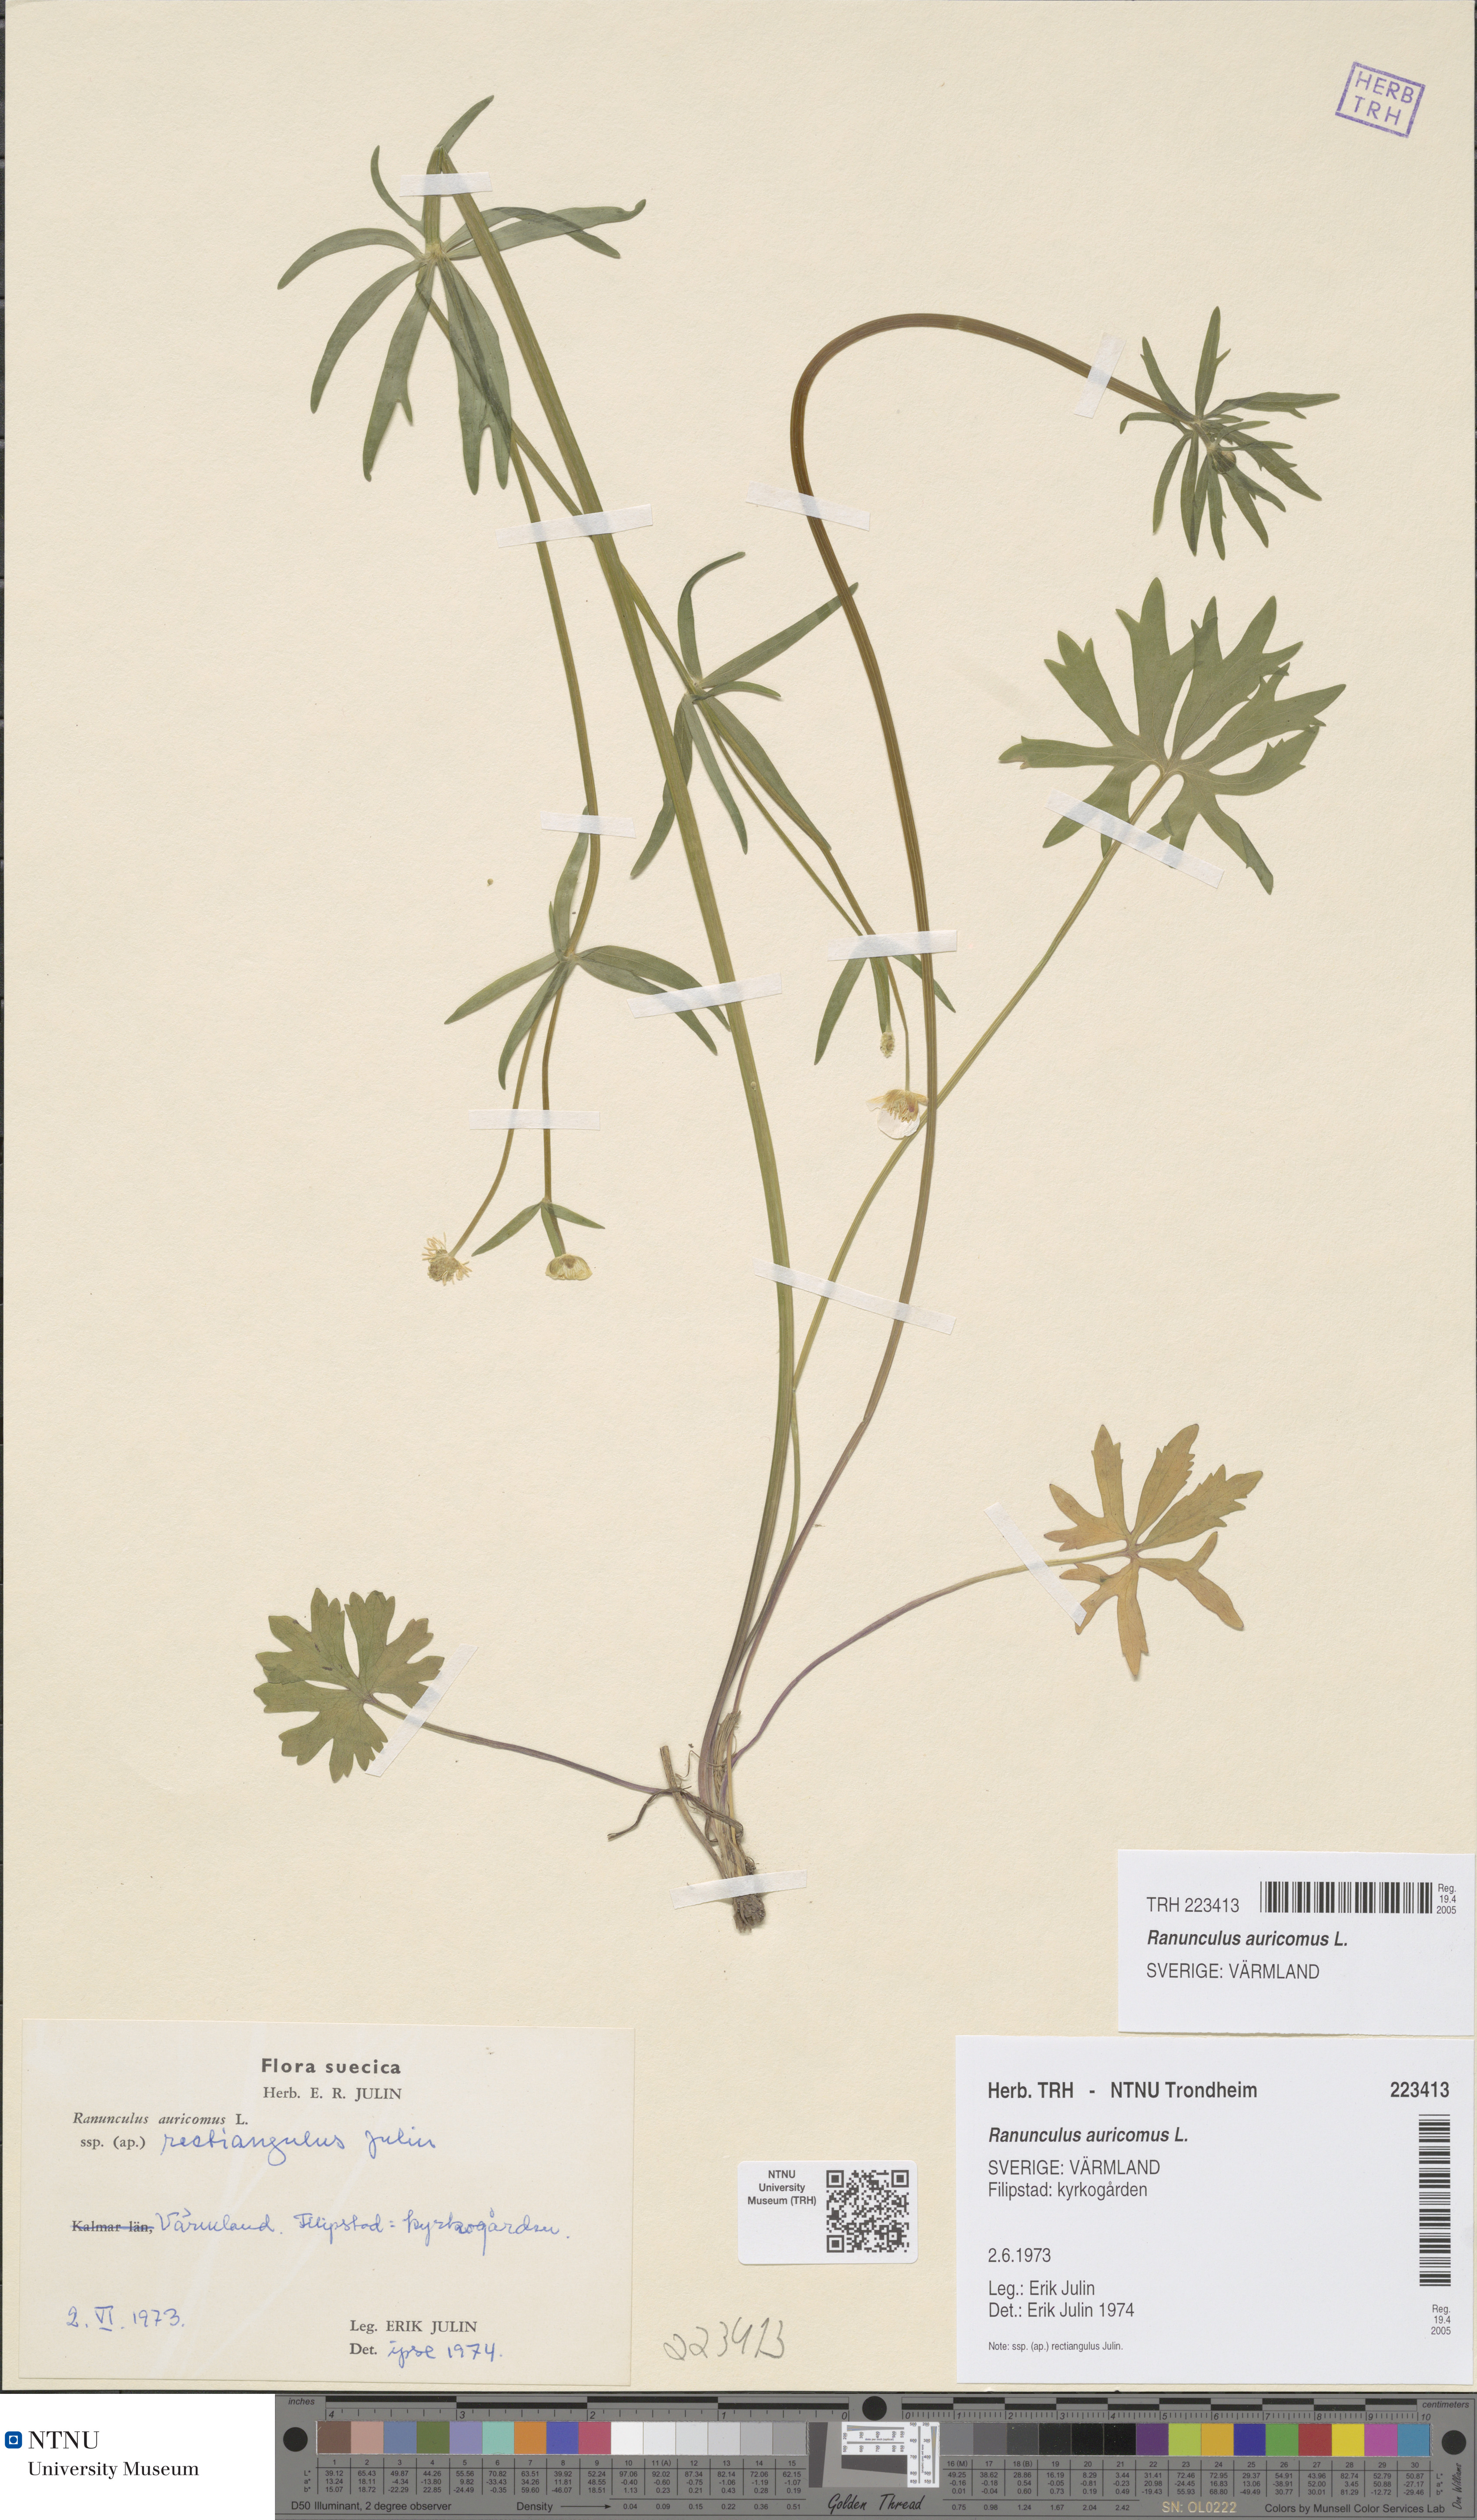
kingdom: Plantae
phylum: Tracheophyta
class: Magnoliopsida
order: Ranunculales
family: Ranunculaceae
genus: Ranunculus
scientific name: Ranunculus auricomus
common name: Goldilocks buttercup
